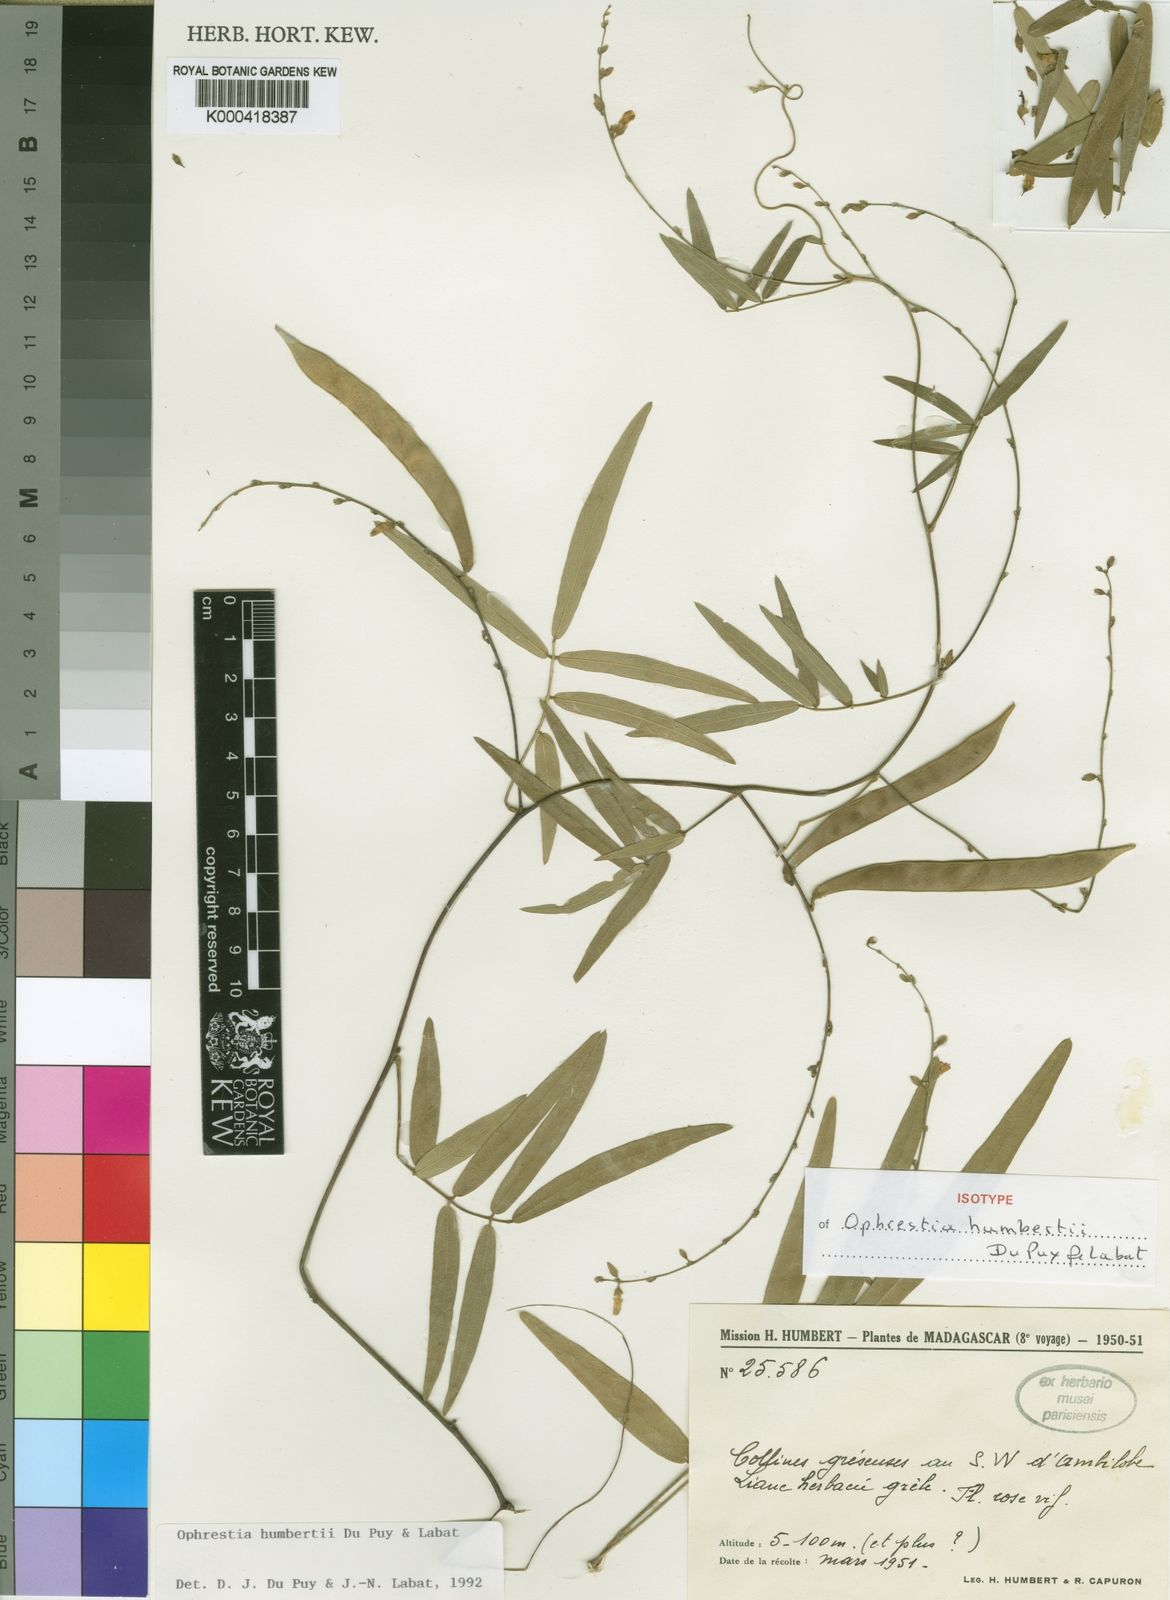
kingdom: Plantae
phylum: Tracheophyta
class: Magnoliopsida
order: Fabales
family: Fabaceae
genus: Ophrestia
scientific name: Ophrestia humbertii
